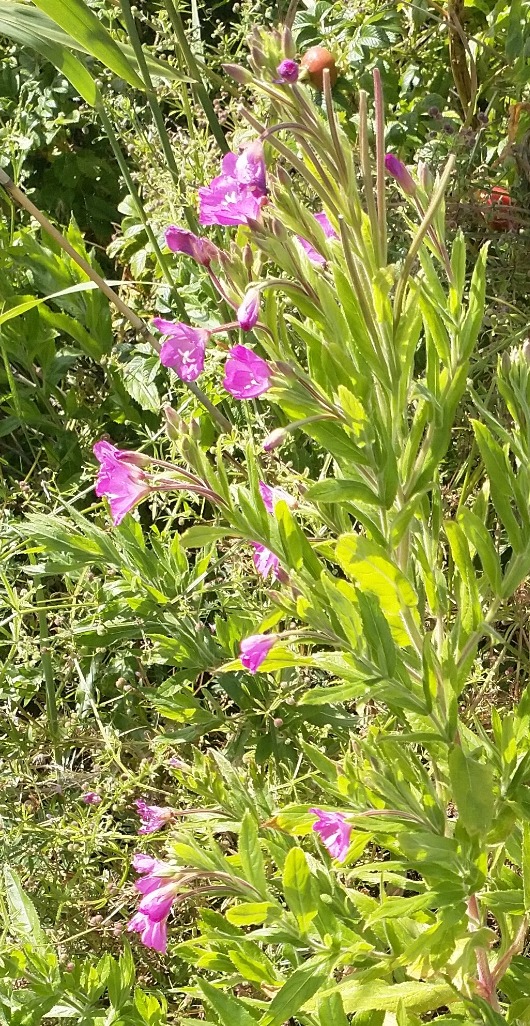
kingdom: Plantae
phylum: Tracheophyta
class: Magnoliopsida
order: Myrtales
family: Onagraceae
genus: Epilobium
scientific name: Epilobium hirsutum
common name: Lådden dueurt
